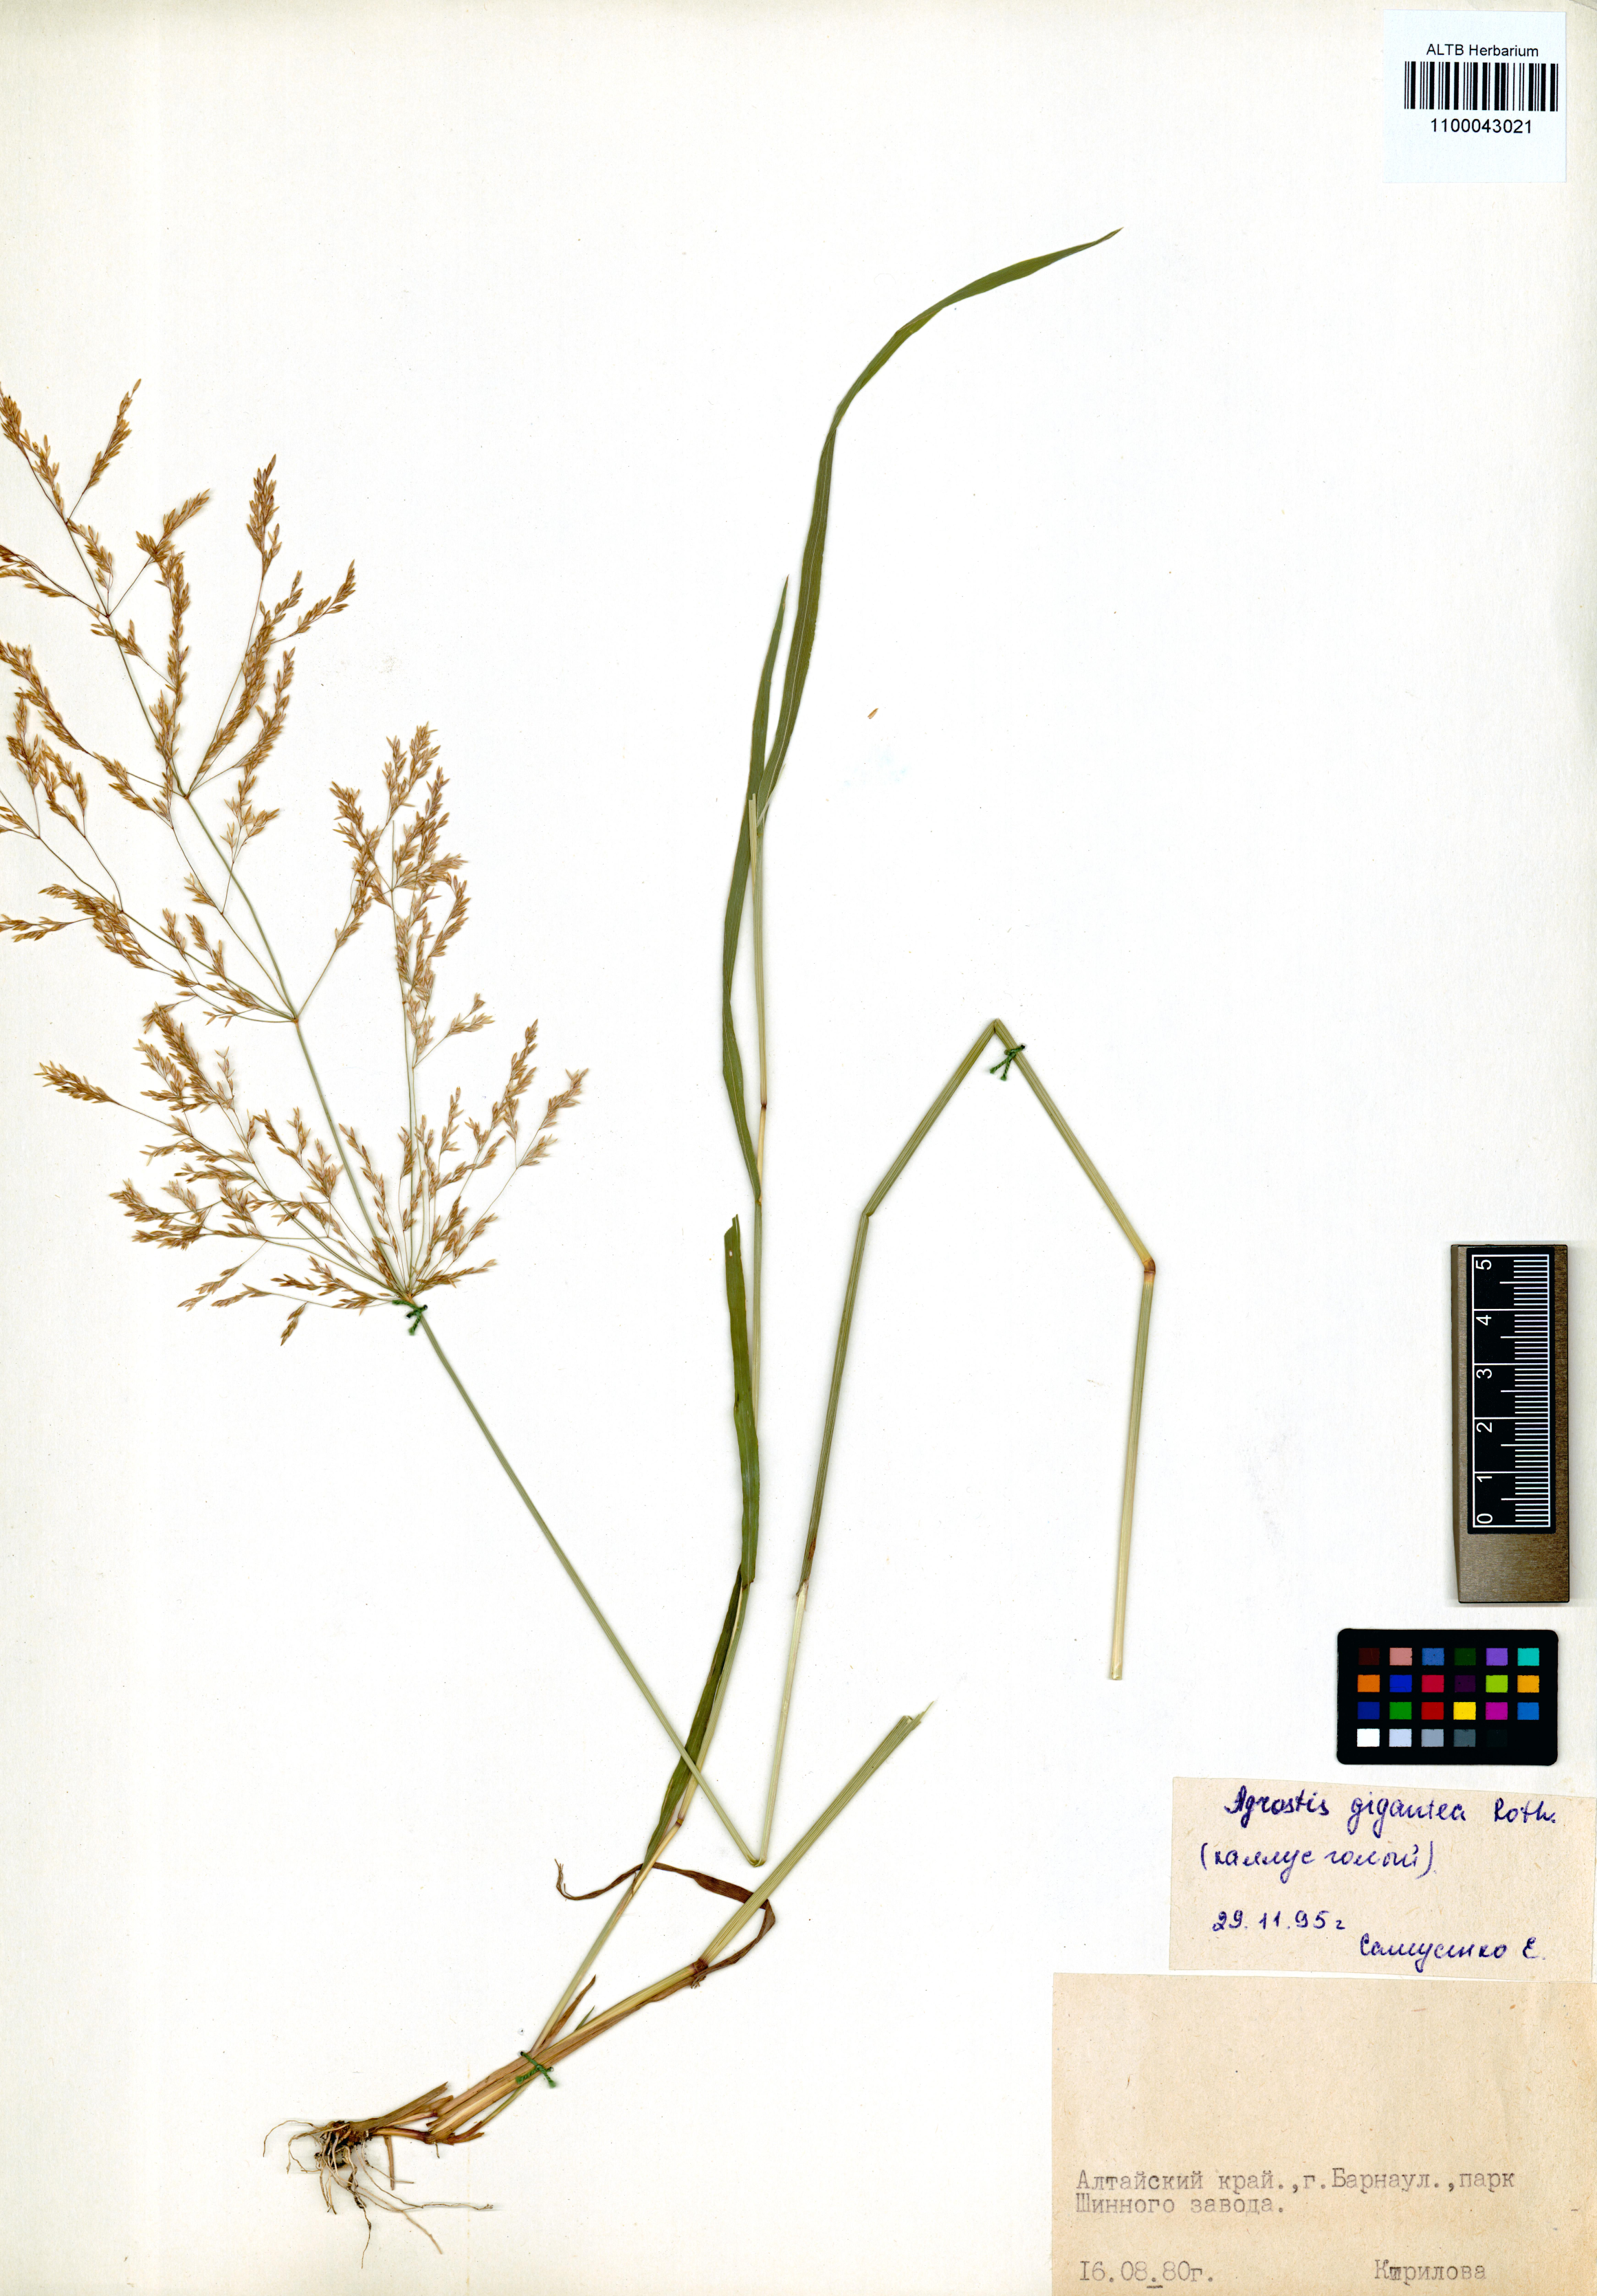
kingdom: Plantae
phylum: Tracheophyta
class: Liliopsida
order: Poales
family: Poaceae
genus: Agrostis
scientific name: Agrostis gigantea
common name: Black bent
